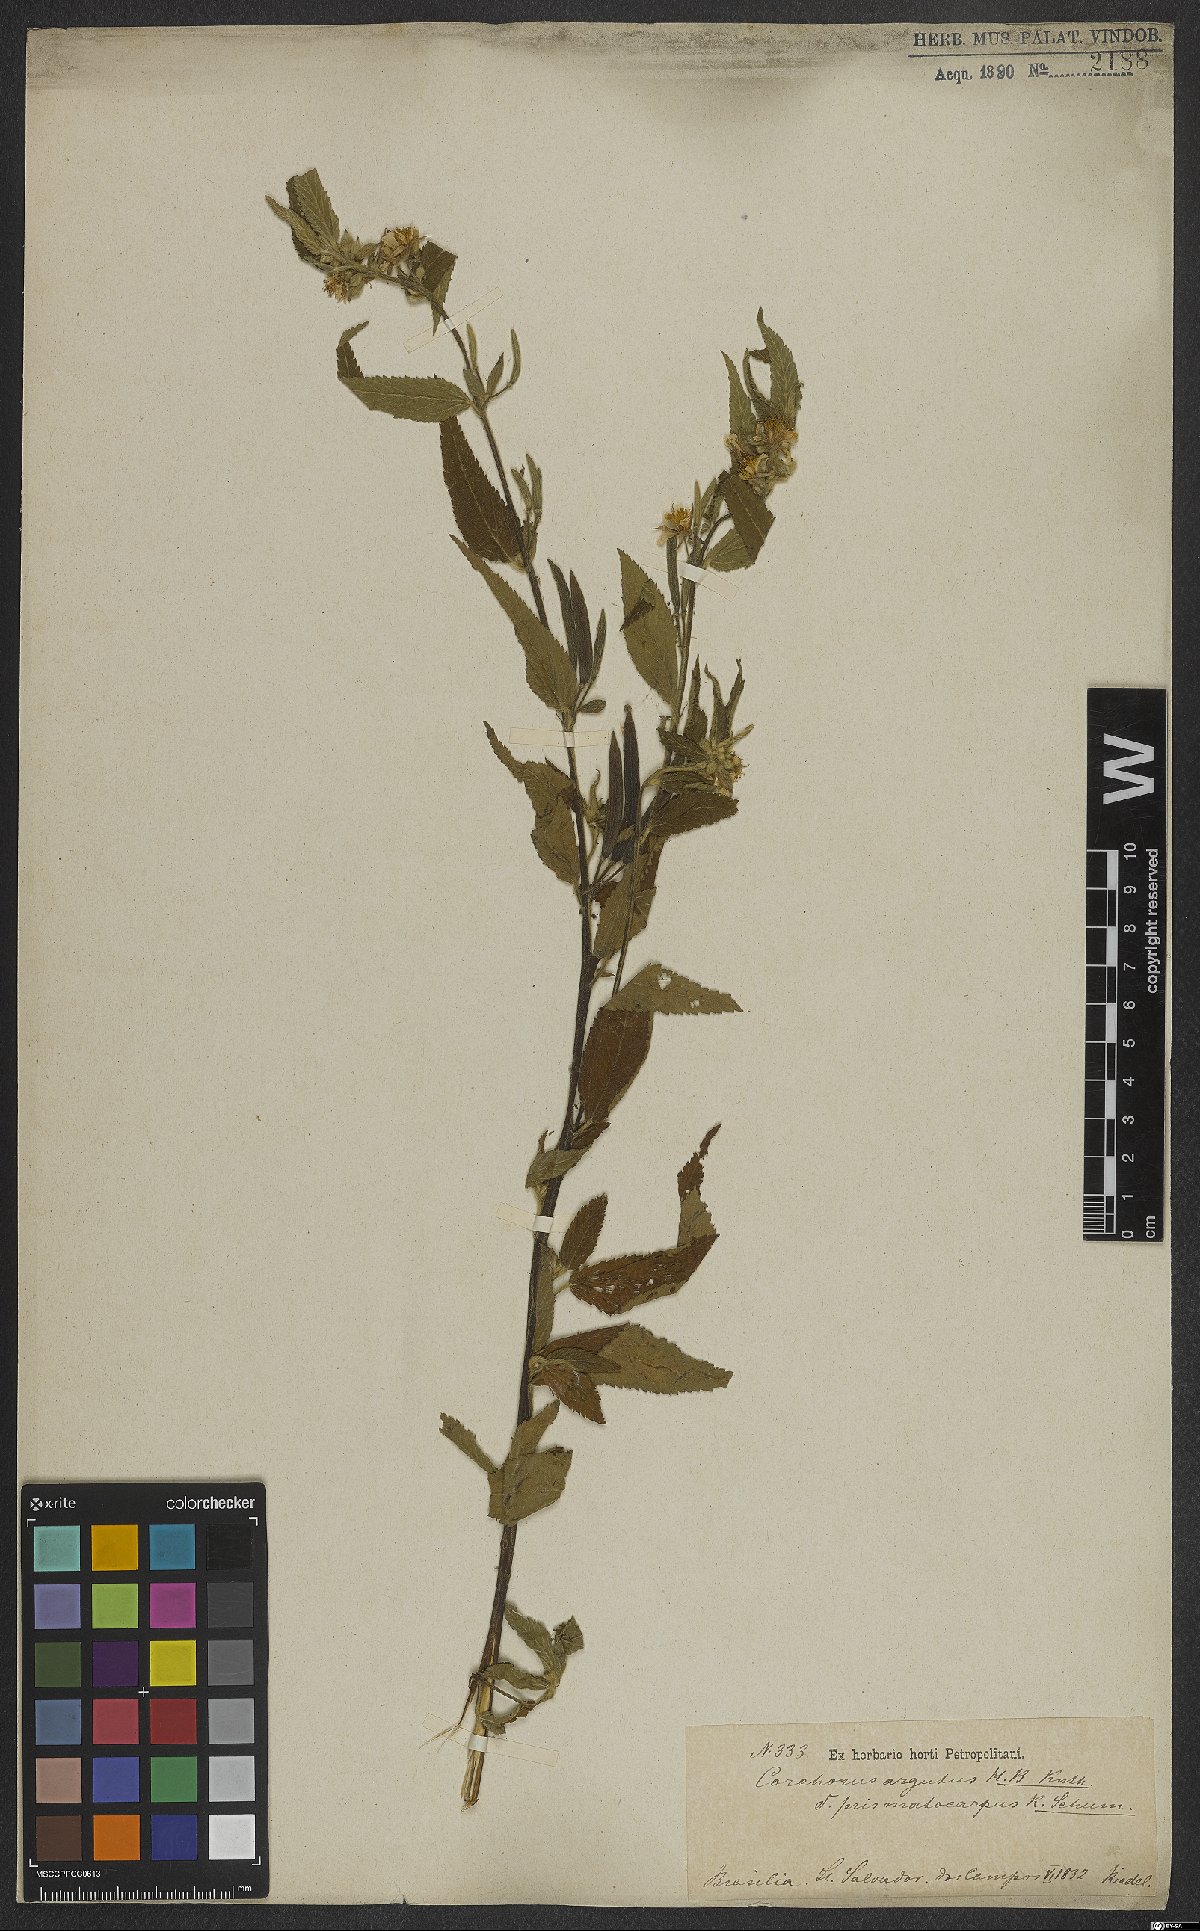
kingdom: Plantae
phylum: Tracheophyta
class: Magnoliopsida
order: Malvales
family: Malvaceae
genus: Corchorus
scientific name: Corchorus argutus
